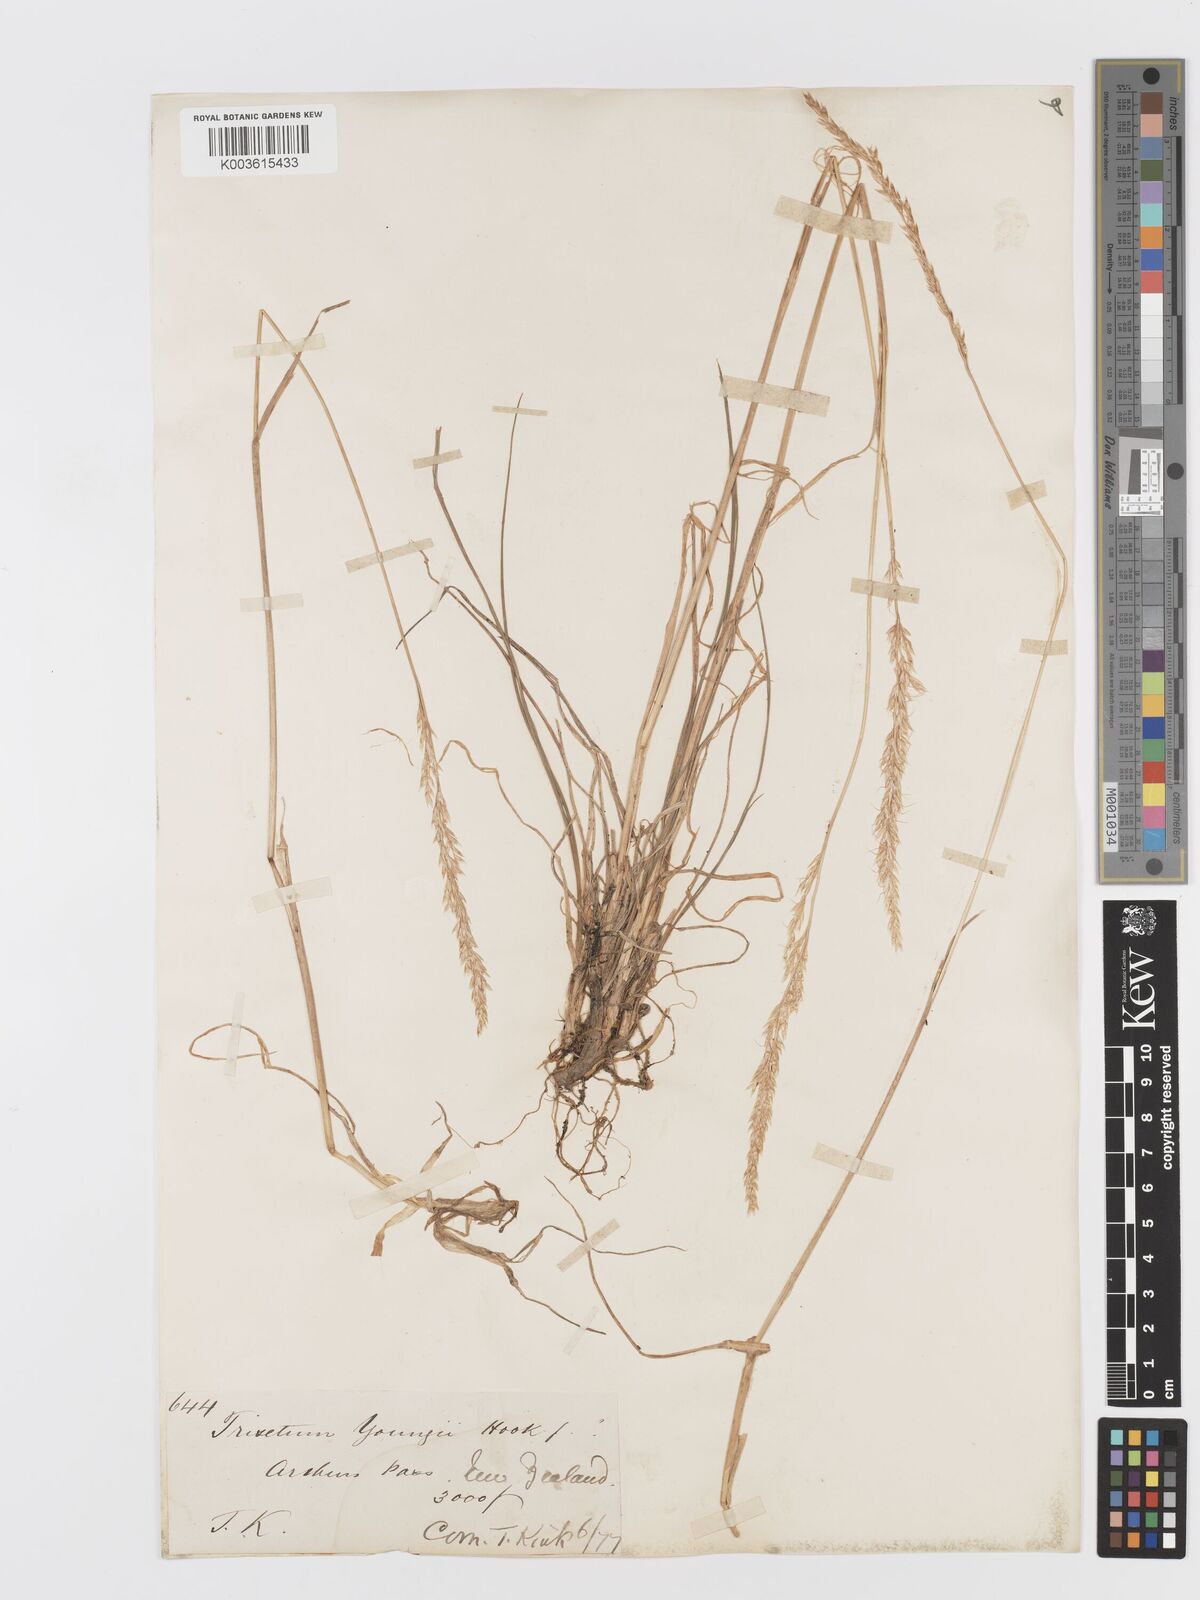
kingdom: Plantae
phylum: Tracheophyta
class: Liliopsida
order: Poales
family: Poaceae
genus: Koeleria
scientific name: Koeleria youngii
